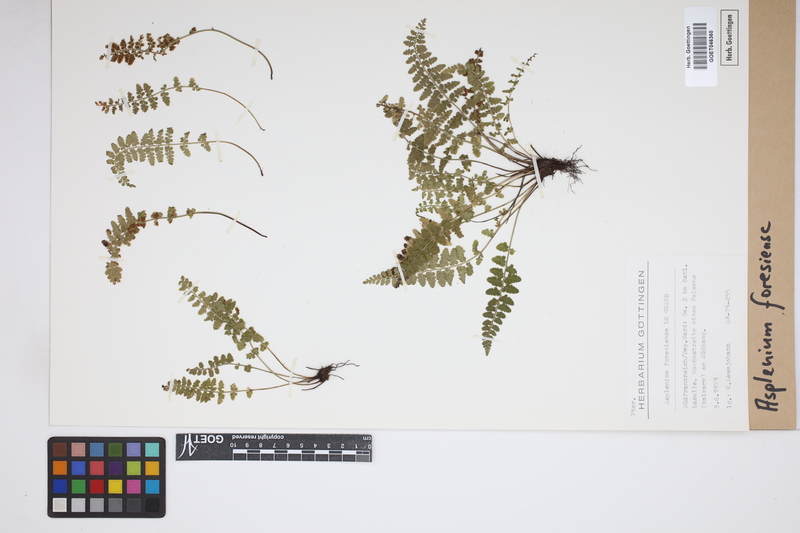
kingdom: Plantae
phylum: Tracheophyta
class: Polypodiopsida
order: Polypodiales
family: Aspleniaceae
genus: Asplenium
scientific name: Asplenium foresiense
